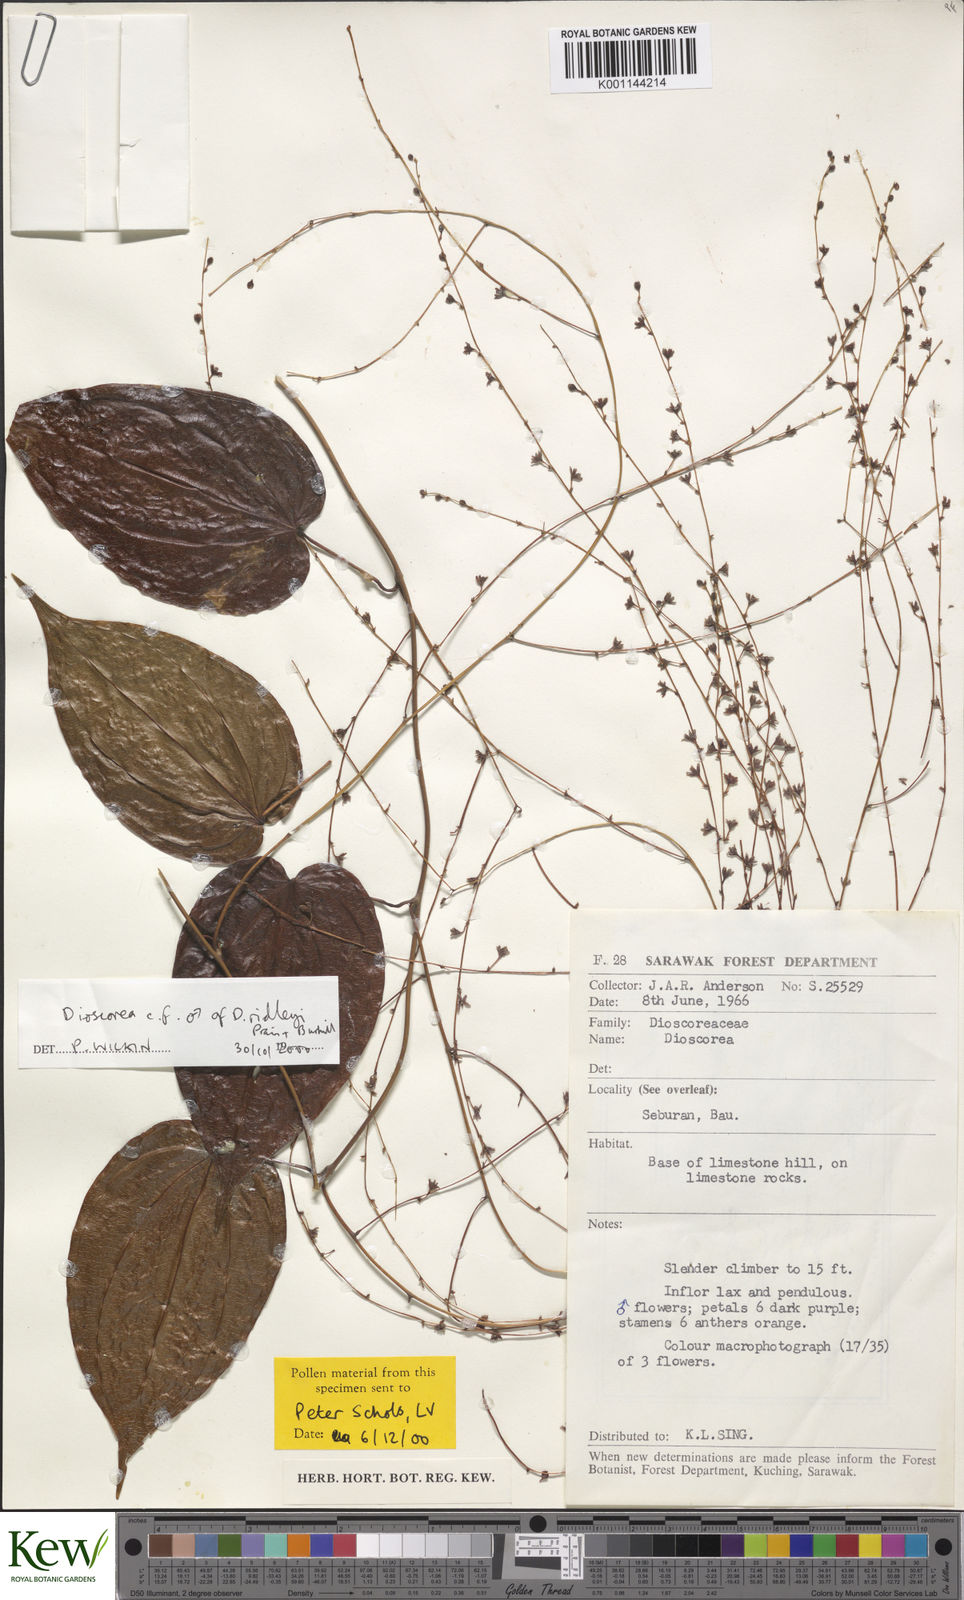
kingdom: Plantae
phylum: Tracheophyta
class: Liliopsida
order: Dioscoreales
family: Dioscoreaceae
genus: Dioscorea
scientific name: Dioscorea ridleyi
